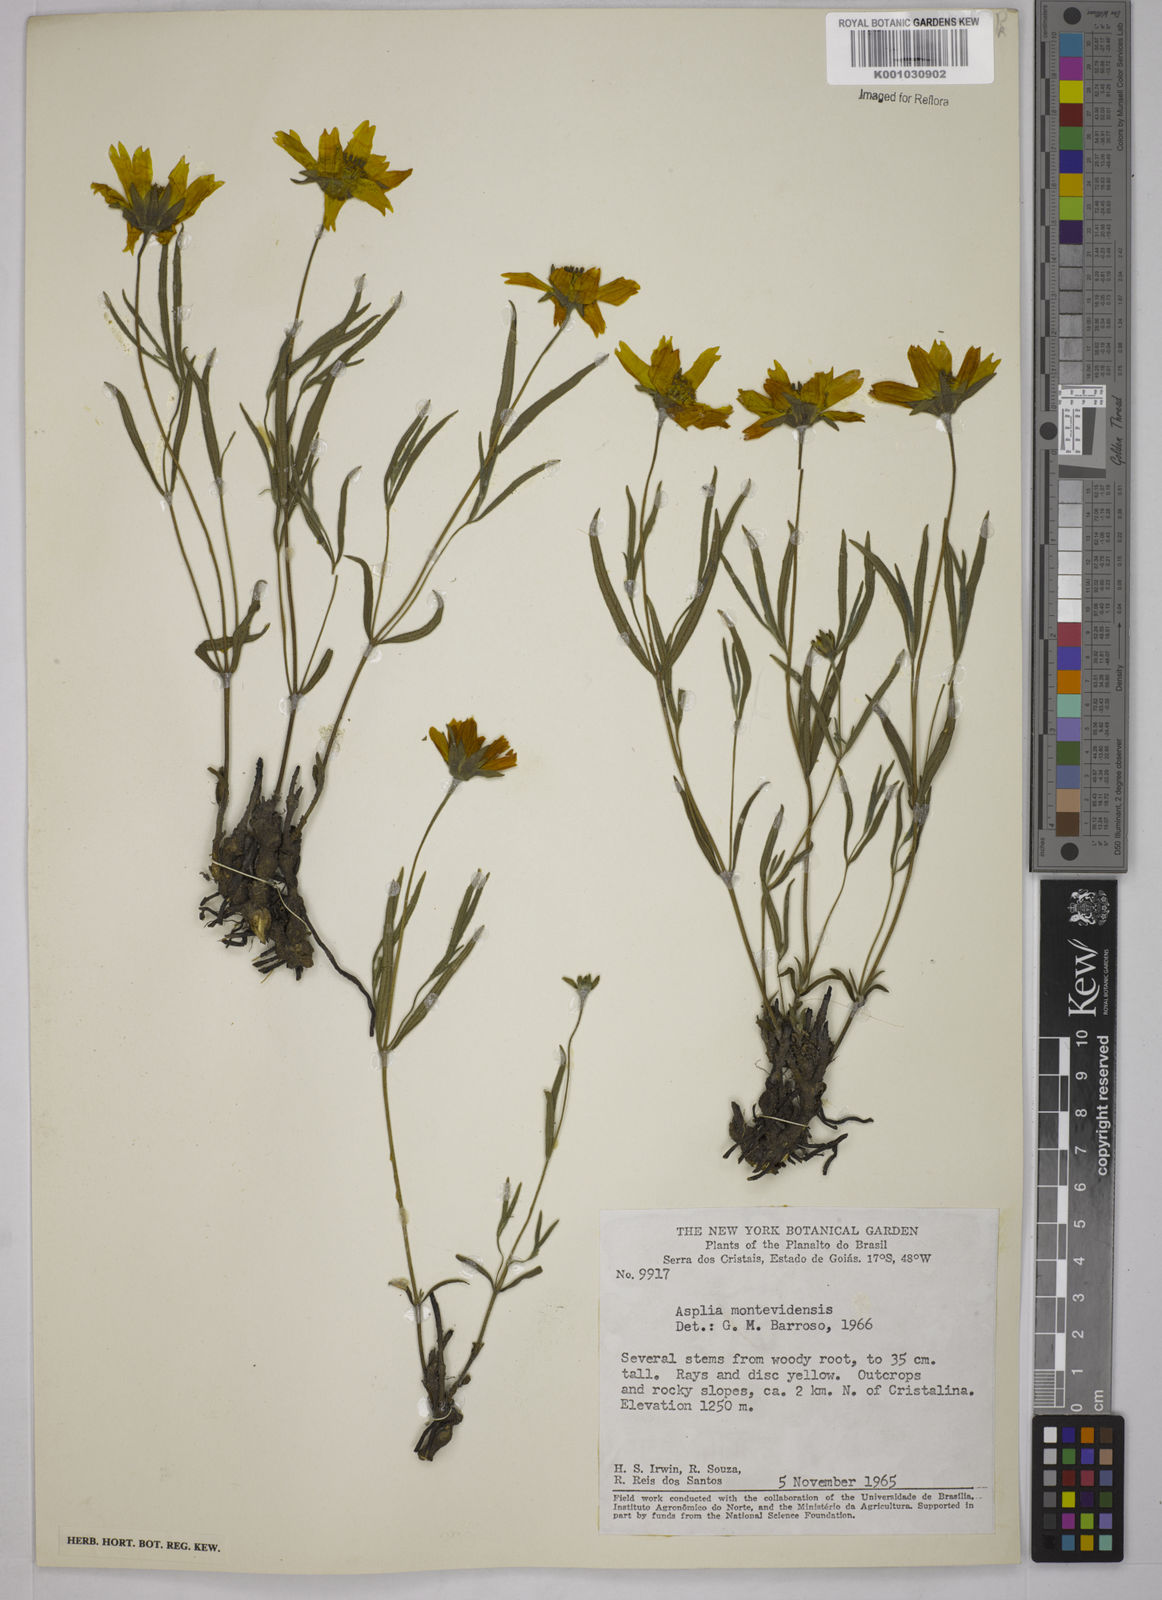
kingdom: Plantae
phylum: Tracheophyta
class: Magnoliopsida
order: Asterales
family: Asteraceae
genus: Wedelia
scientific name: Wedelia foliacea
